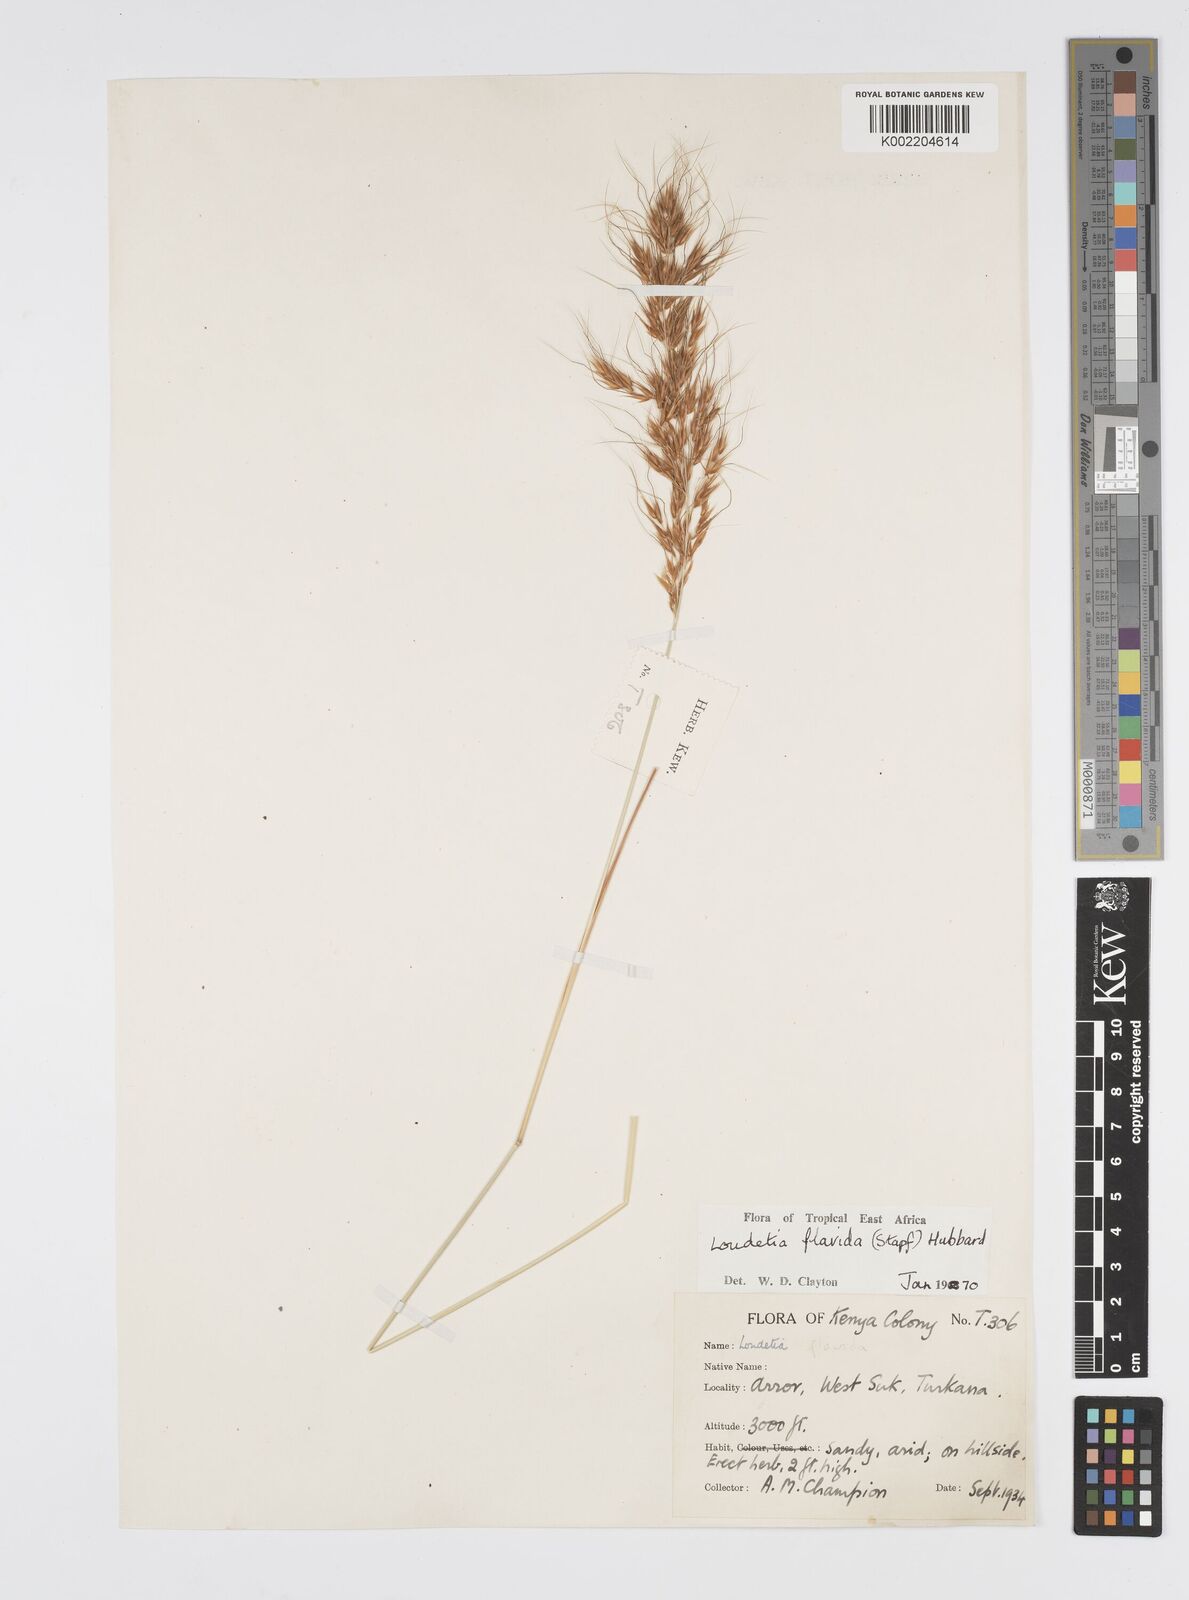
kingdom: Plantae
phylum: Tracheophyta
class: Liliopsida
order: Poales
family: Poaceae
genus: Loudetia
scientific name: Loudetia flavida
